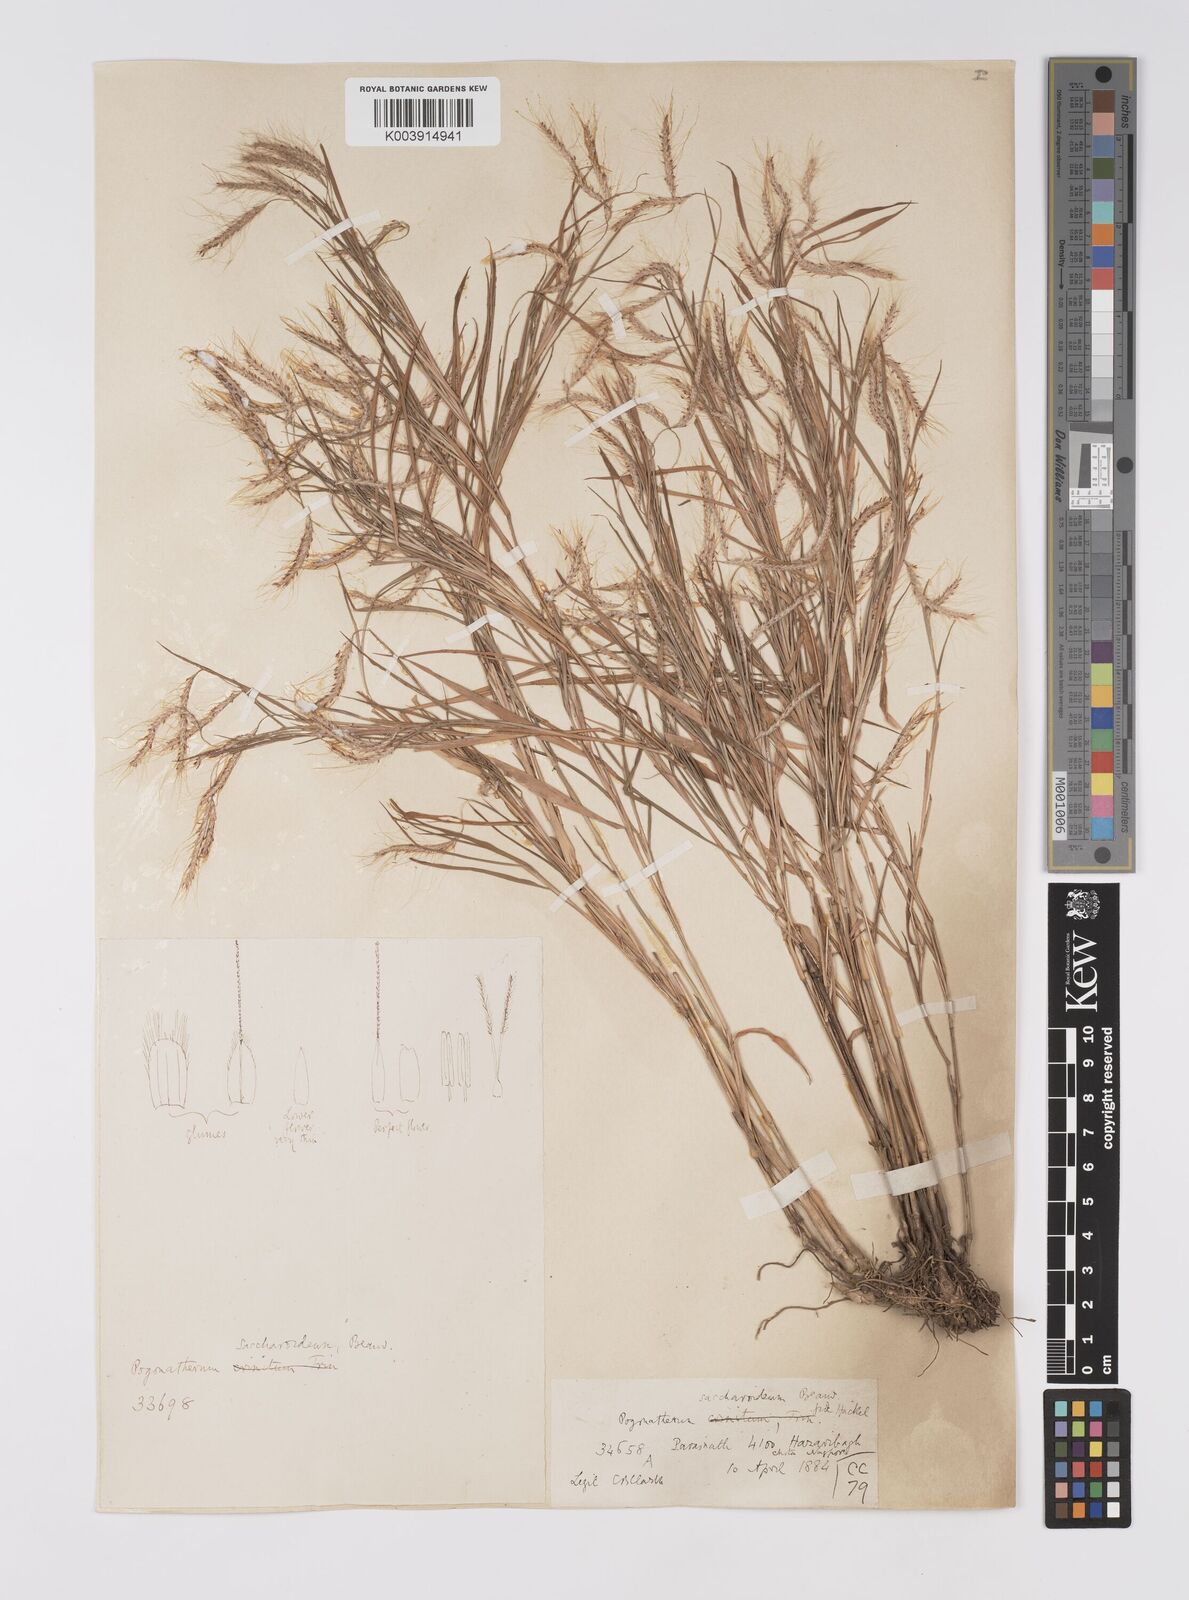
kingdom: Plantae
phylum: Tracheophyta
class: Liliopsida
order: Poales
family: Poaceae
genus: Pogonatherum
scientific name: Pogonatherum paniceum
